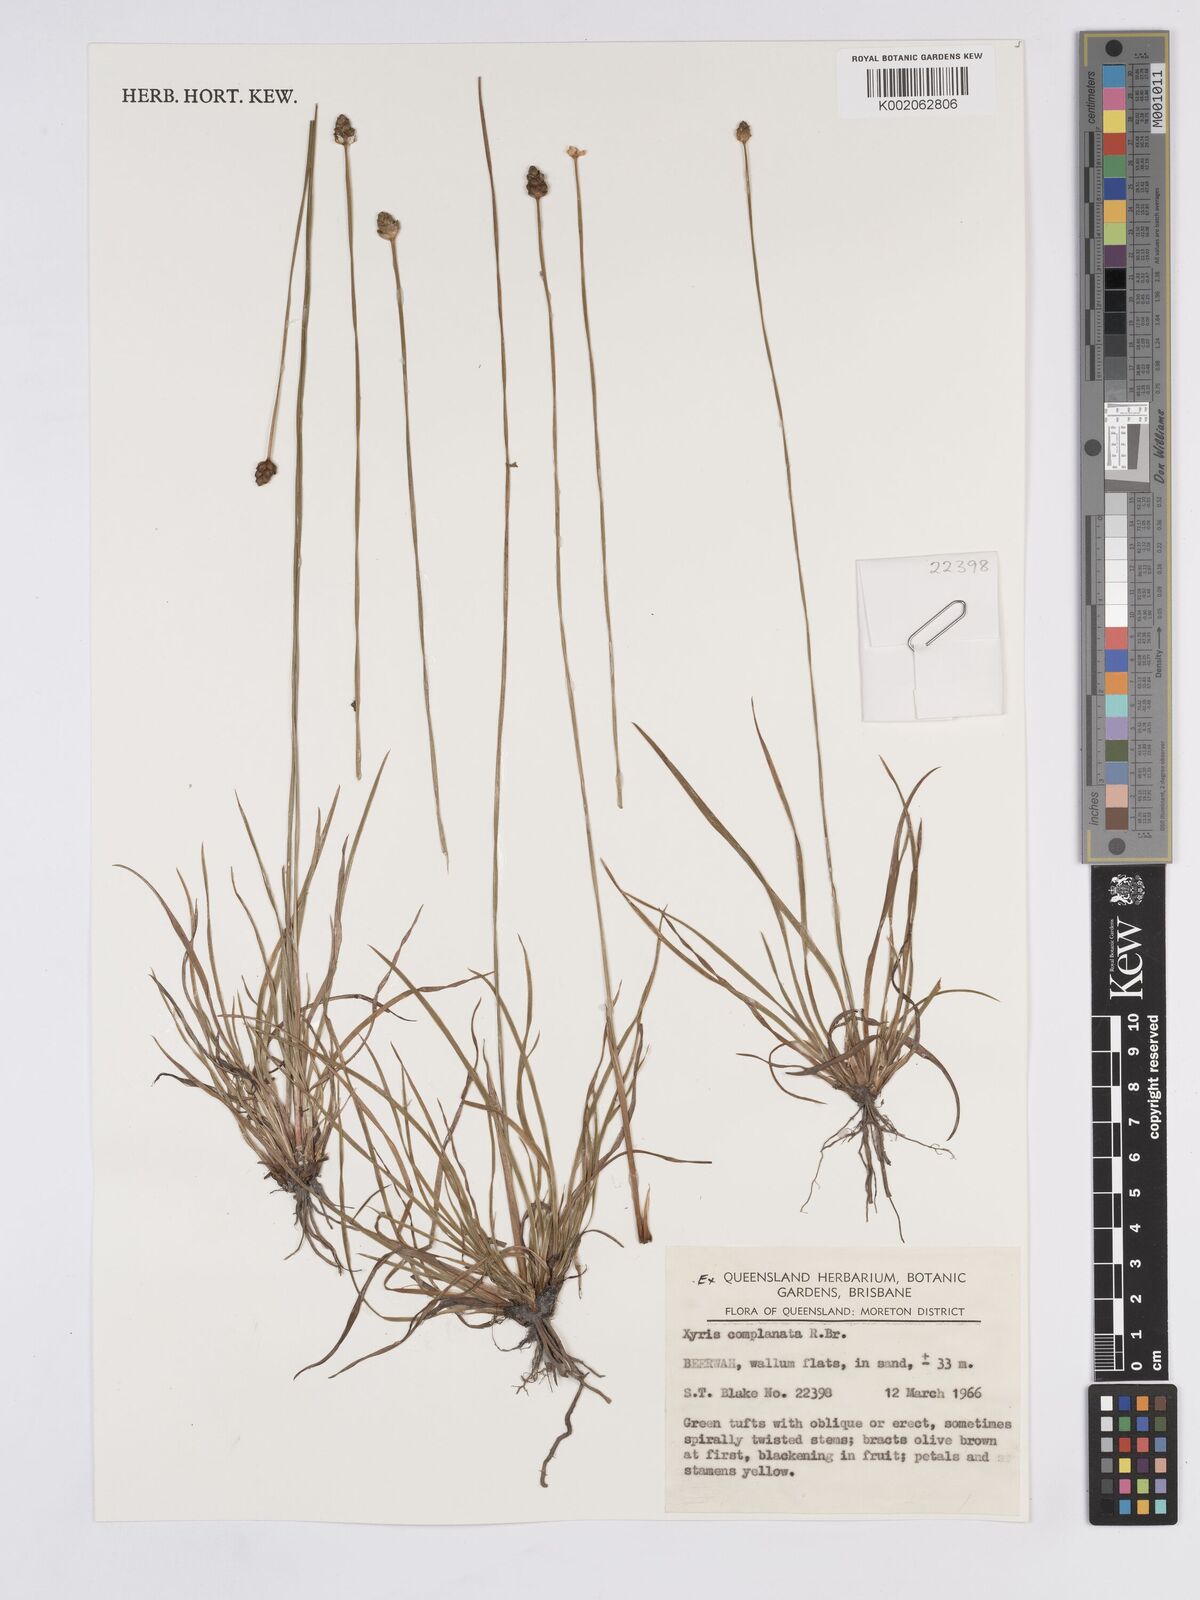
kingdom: Plantae
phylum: Tracheophyta
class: Liliopsida
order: Poales
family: Xyridaceae
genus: Xyris
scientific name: Xyris complanata
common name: Hawai'i yelloweyed grass
